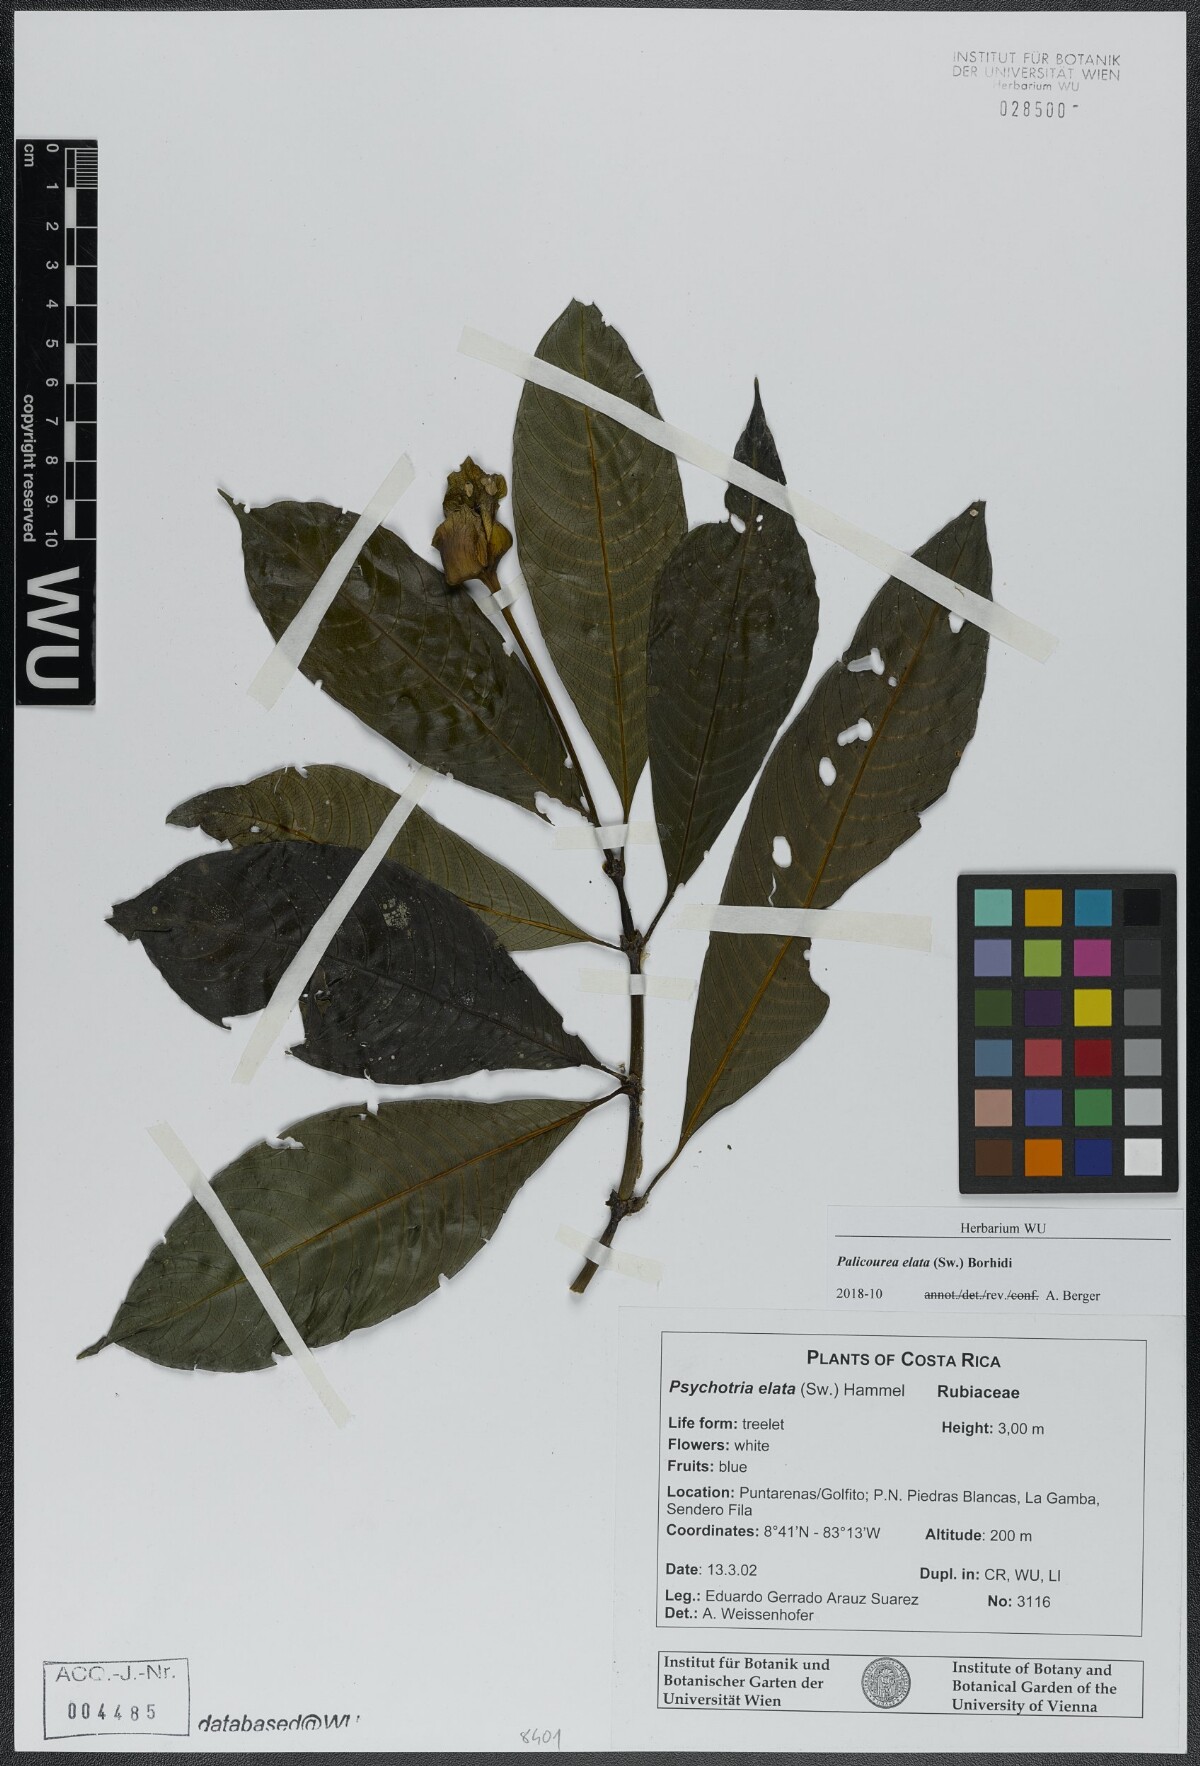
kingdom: Plantae
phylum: Tracheophyta
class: Magnoliopsida
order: Gentianales
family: Rubiaceae
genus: Palicourea
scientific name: Palicourea elata
